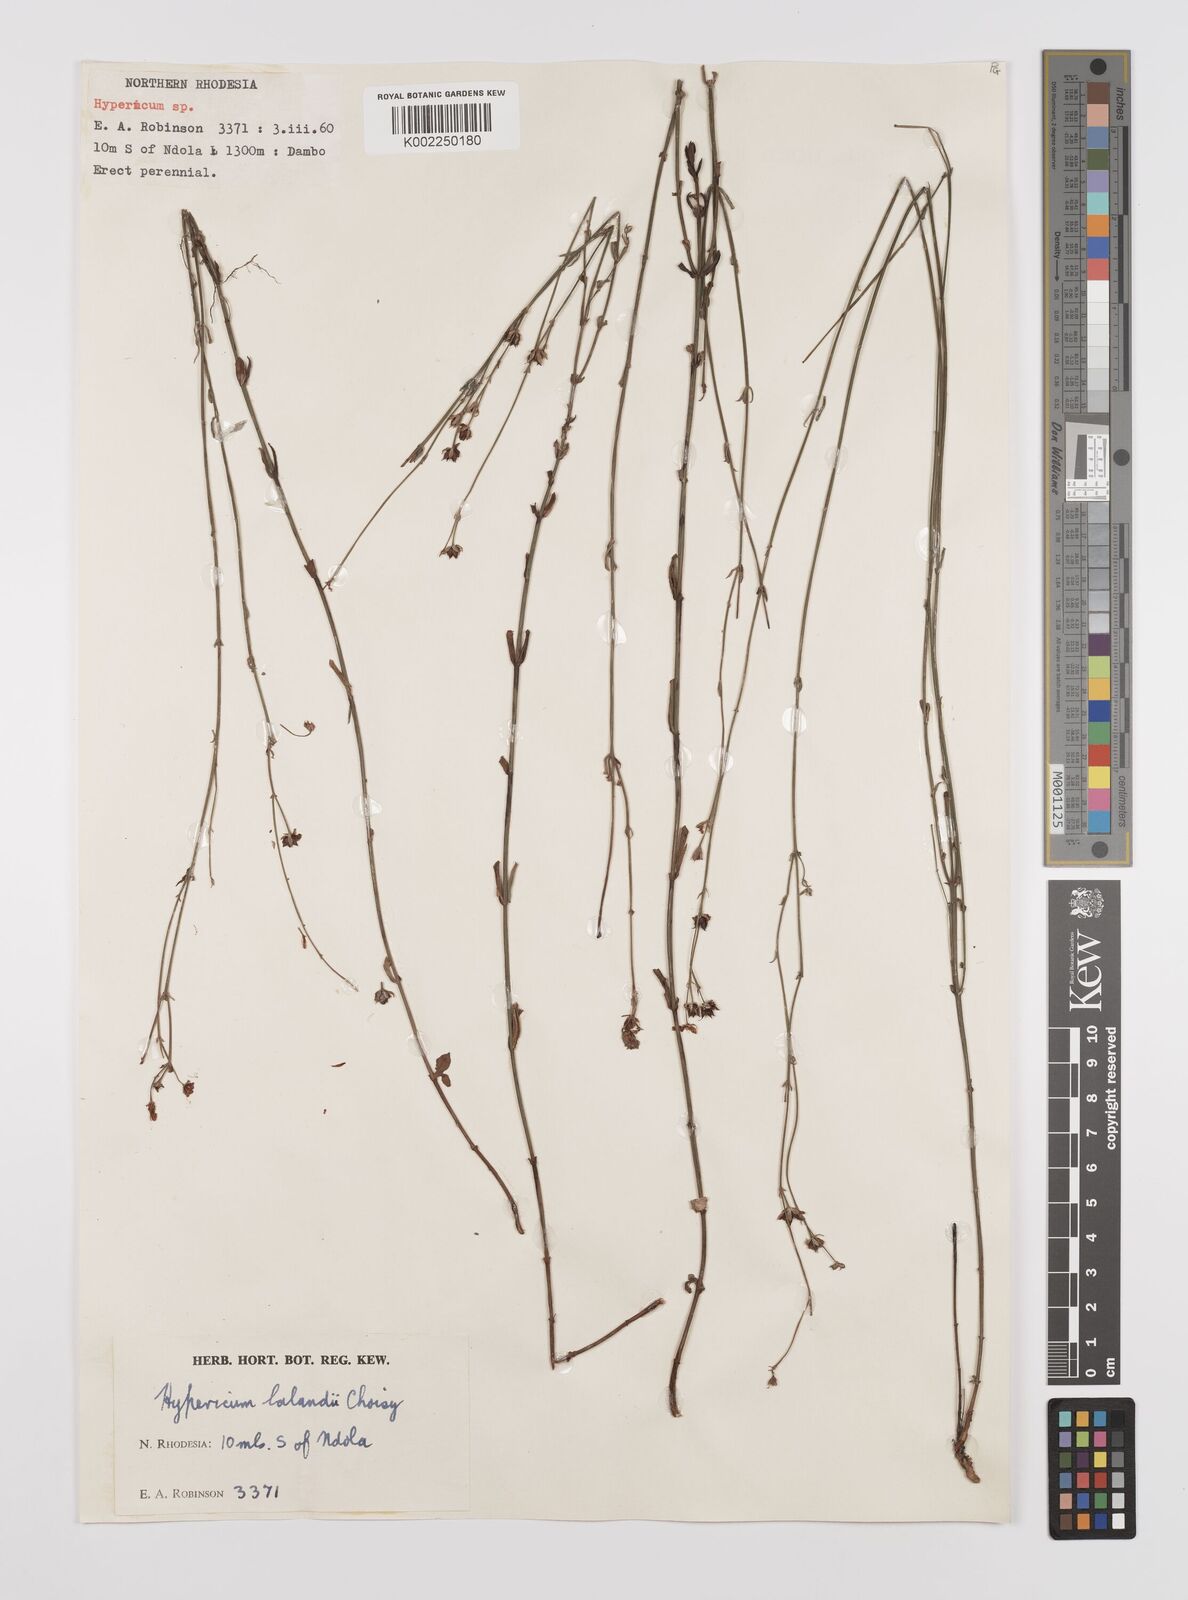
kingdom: Plantae
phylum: Tracheophyta
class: Magnoliopsida
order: Malpighiales
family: Hypericaceae
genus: Hypericum
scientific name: Hypericum lalandii
